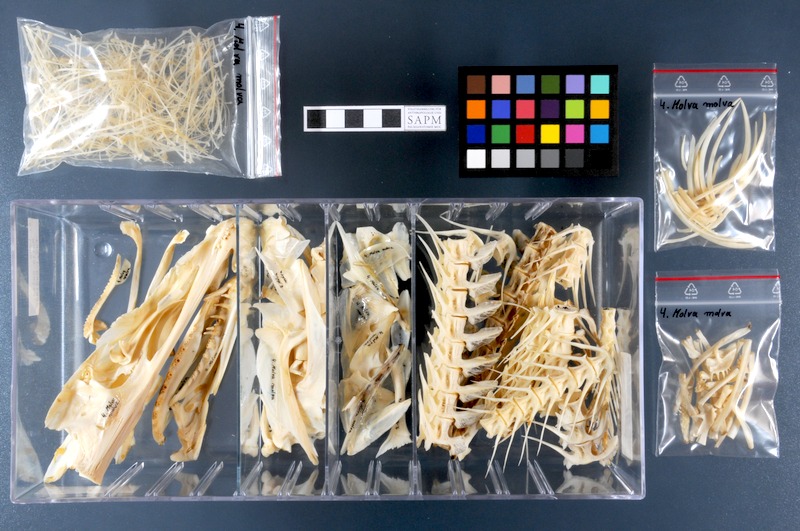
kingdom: Animalia
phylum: Chordata
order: Gadiformes
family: Lotidae
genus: Molva
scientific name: Molva molva
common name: Ling
